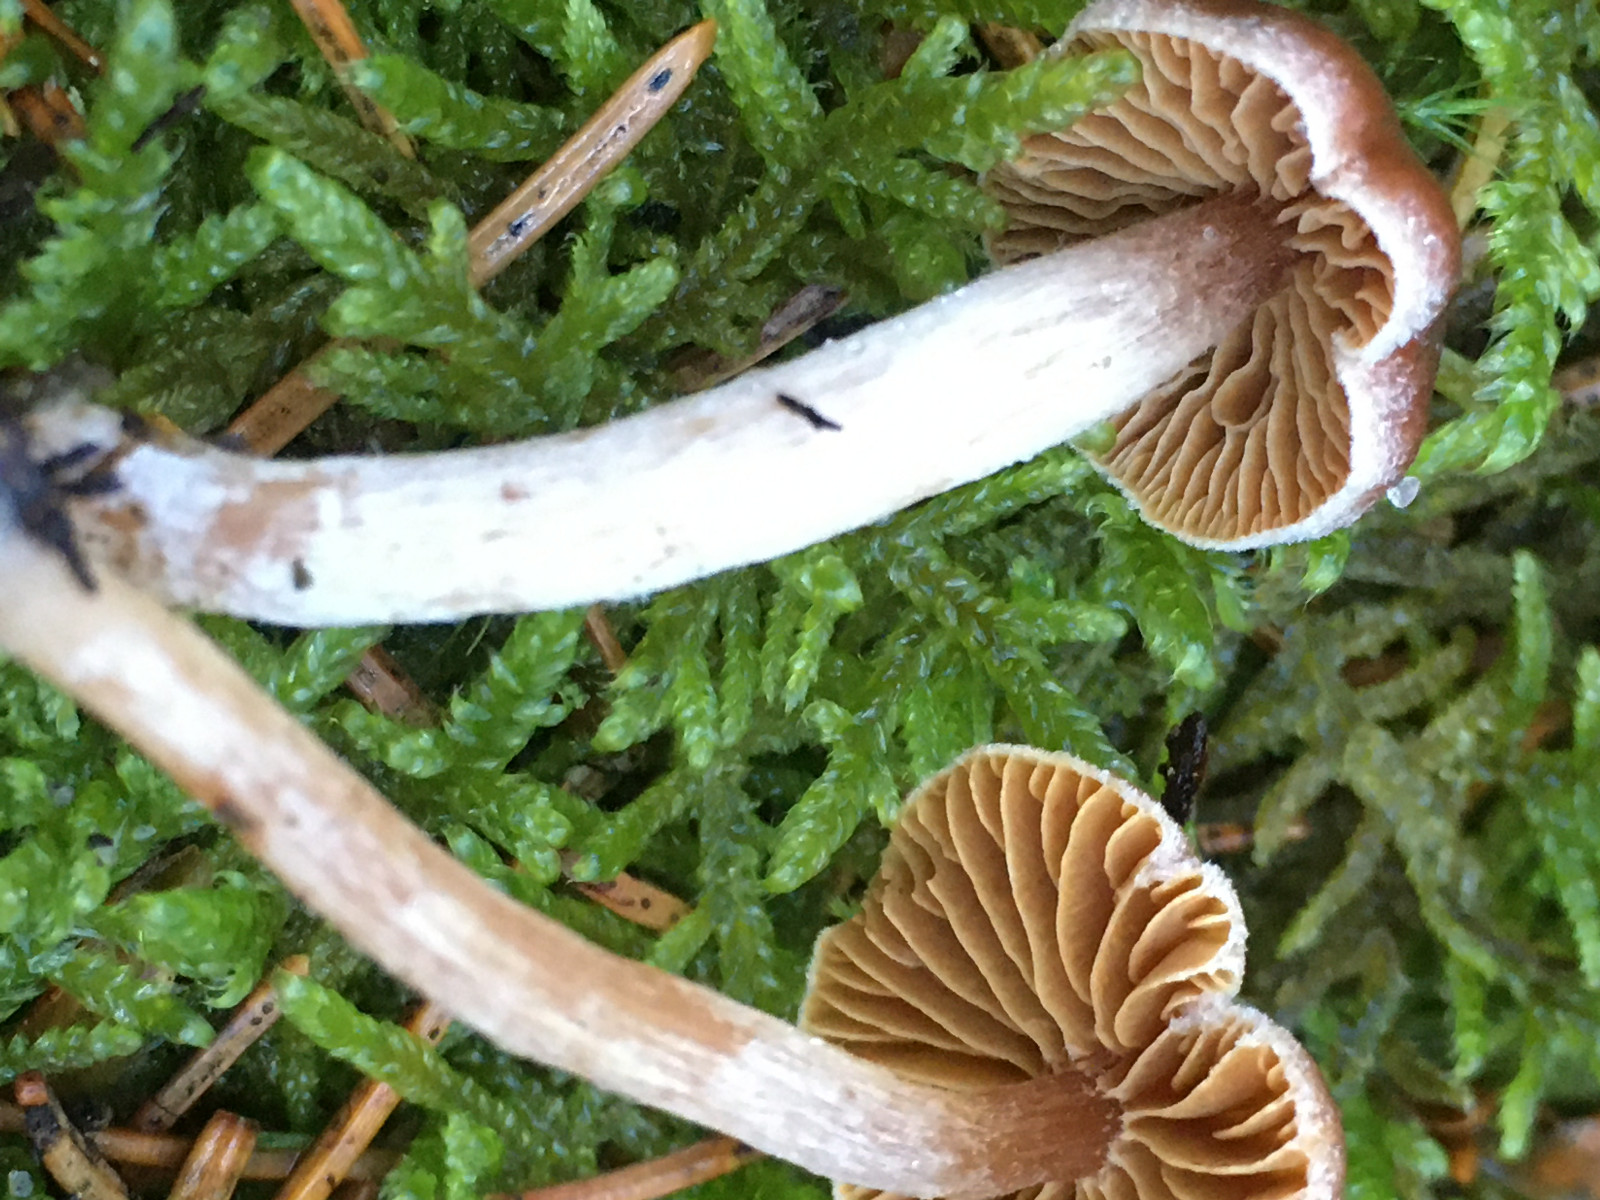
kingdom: Fungi
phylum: Basidiomycota
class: Agaricomycetes
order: Agaricales
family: Cortinariaceae
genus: Cortinarius
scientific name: Cortinarius
